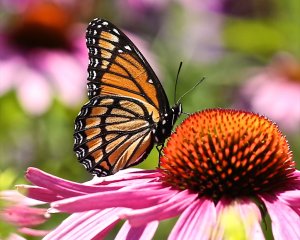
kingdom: Animalia
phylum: Arthropoda
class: Insecta
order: Lepidoptera
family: Nymphalidae
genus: Limenitis
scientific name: Limenitis archippus
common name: Viceroy
